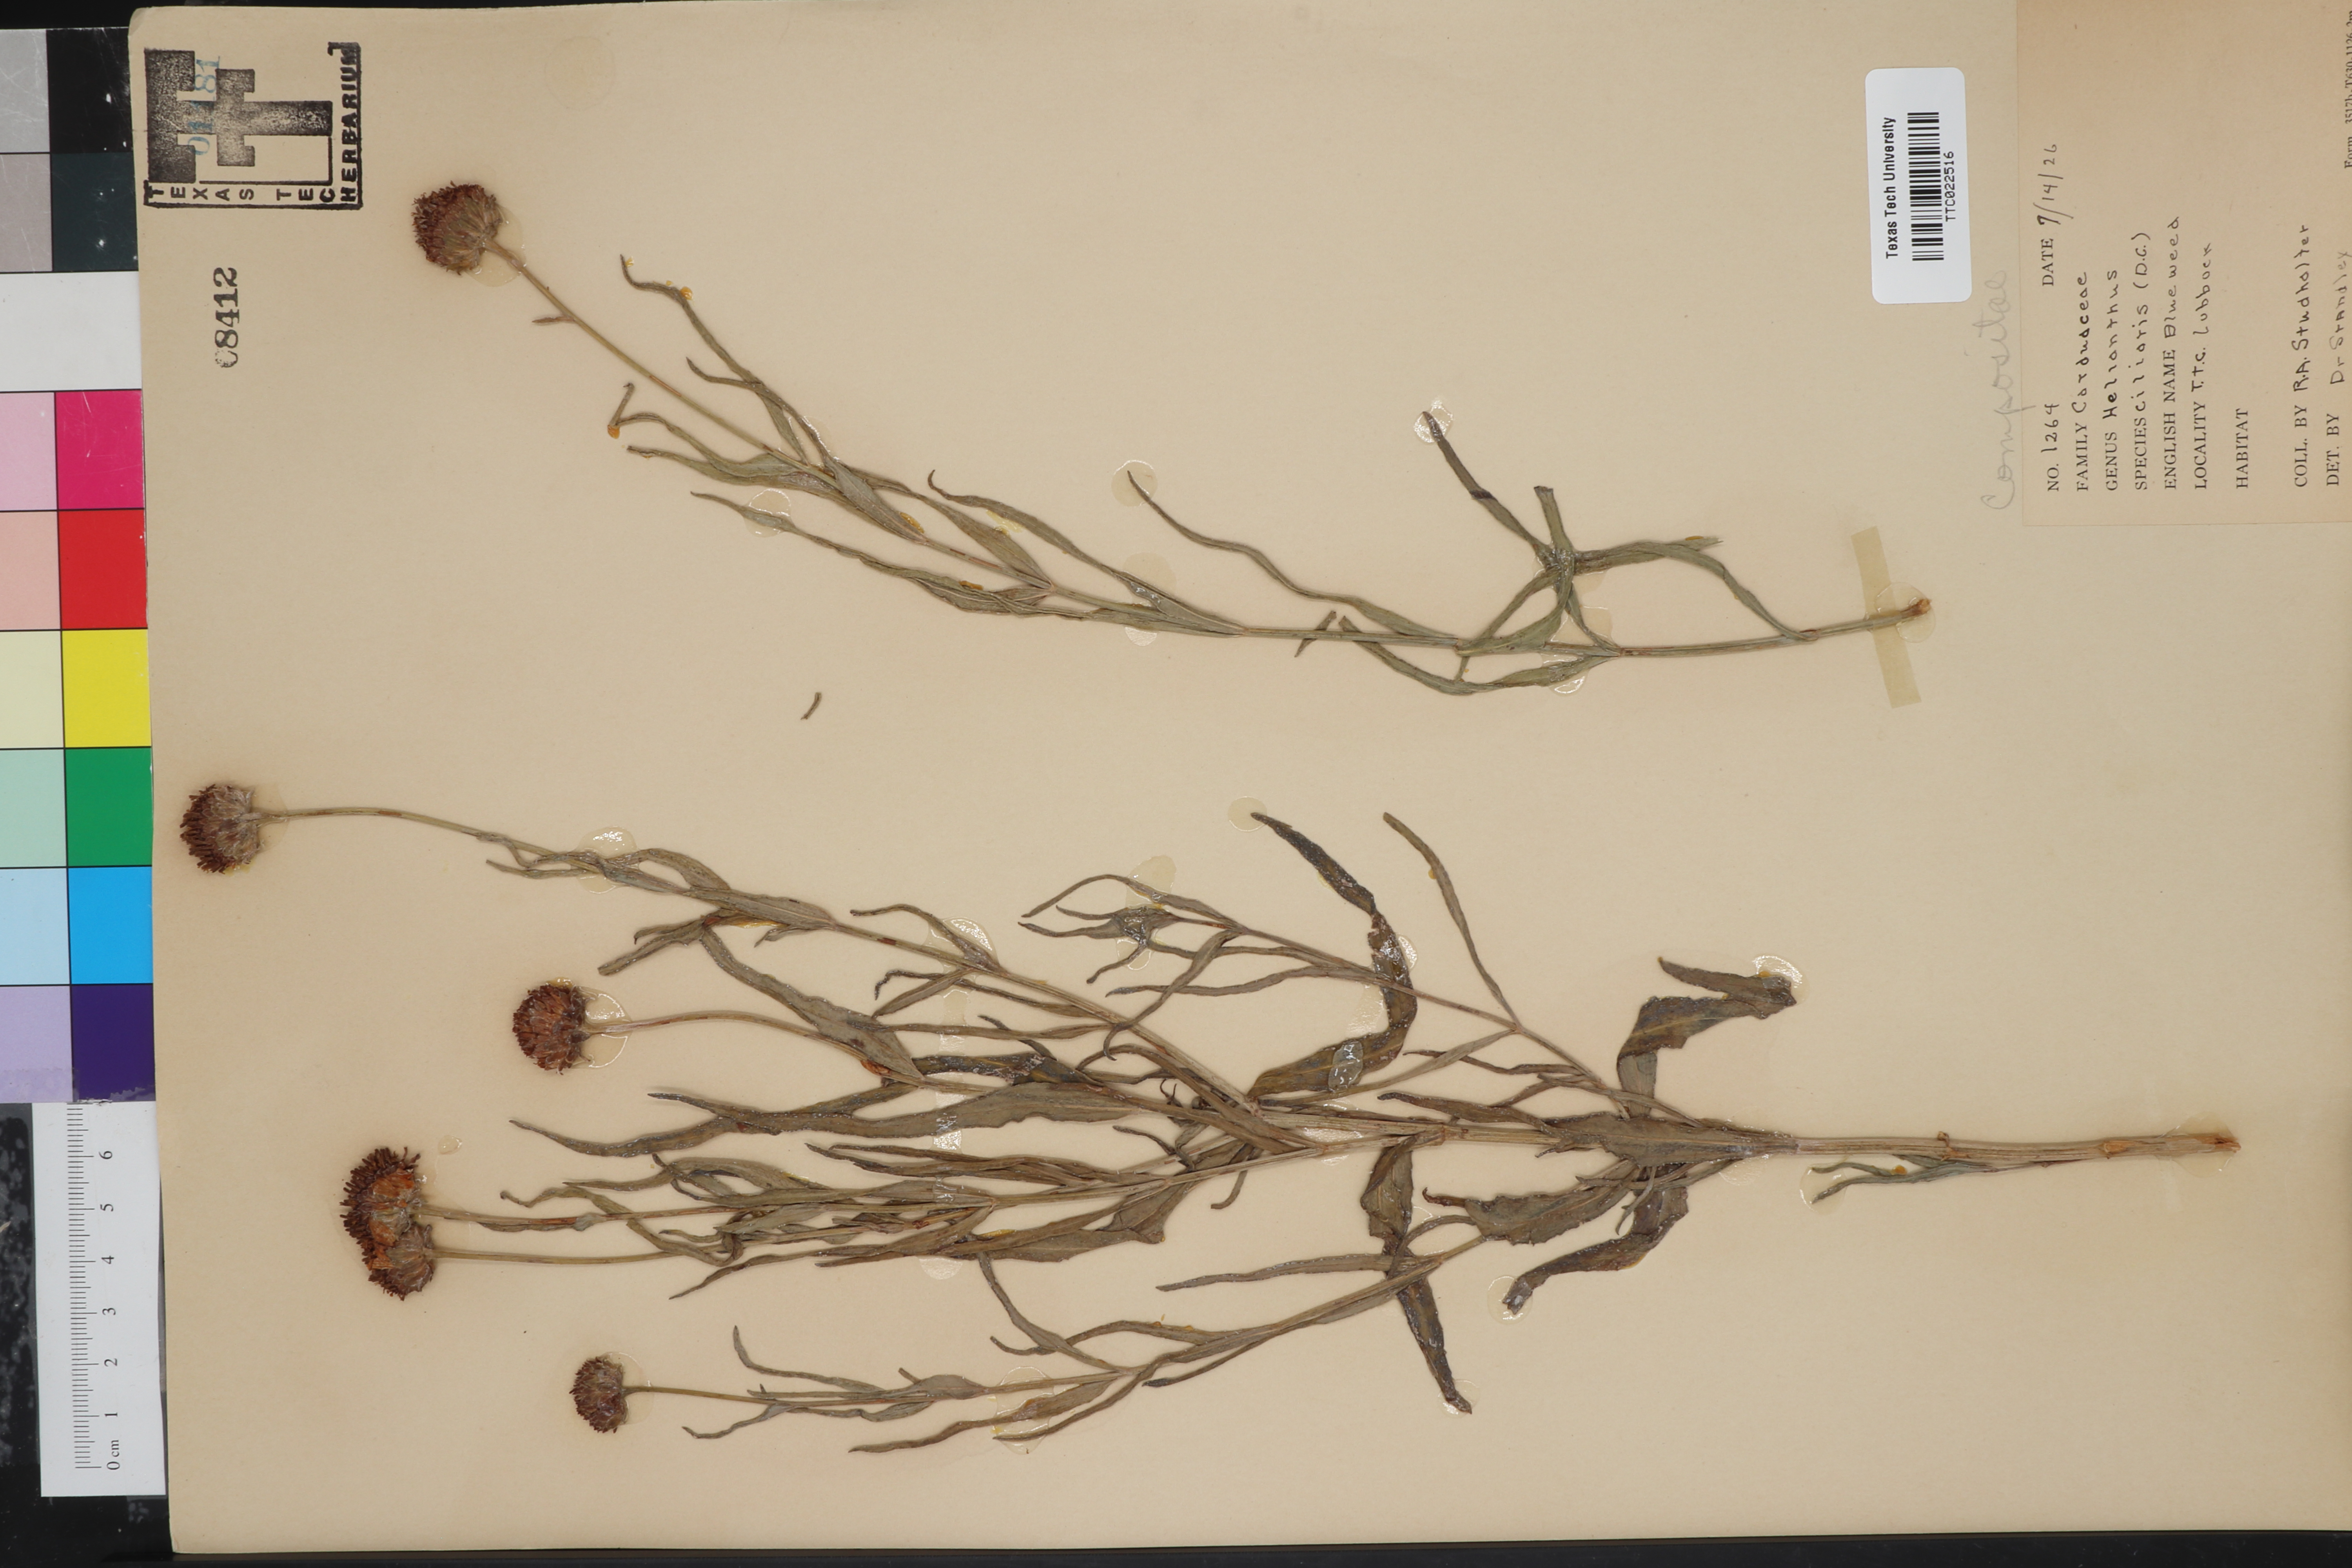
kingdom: Plantae
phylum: Tracheophyta
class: Magnoliopsida
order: Asterales
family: Asteraceae
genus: Helianthus
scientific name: Helianthus ciliaris
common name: Texas blueweed
